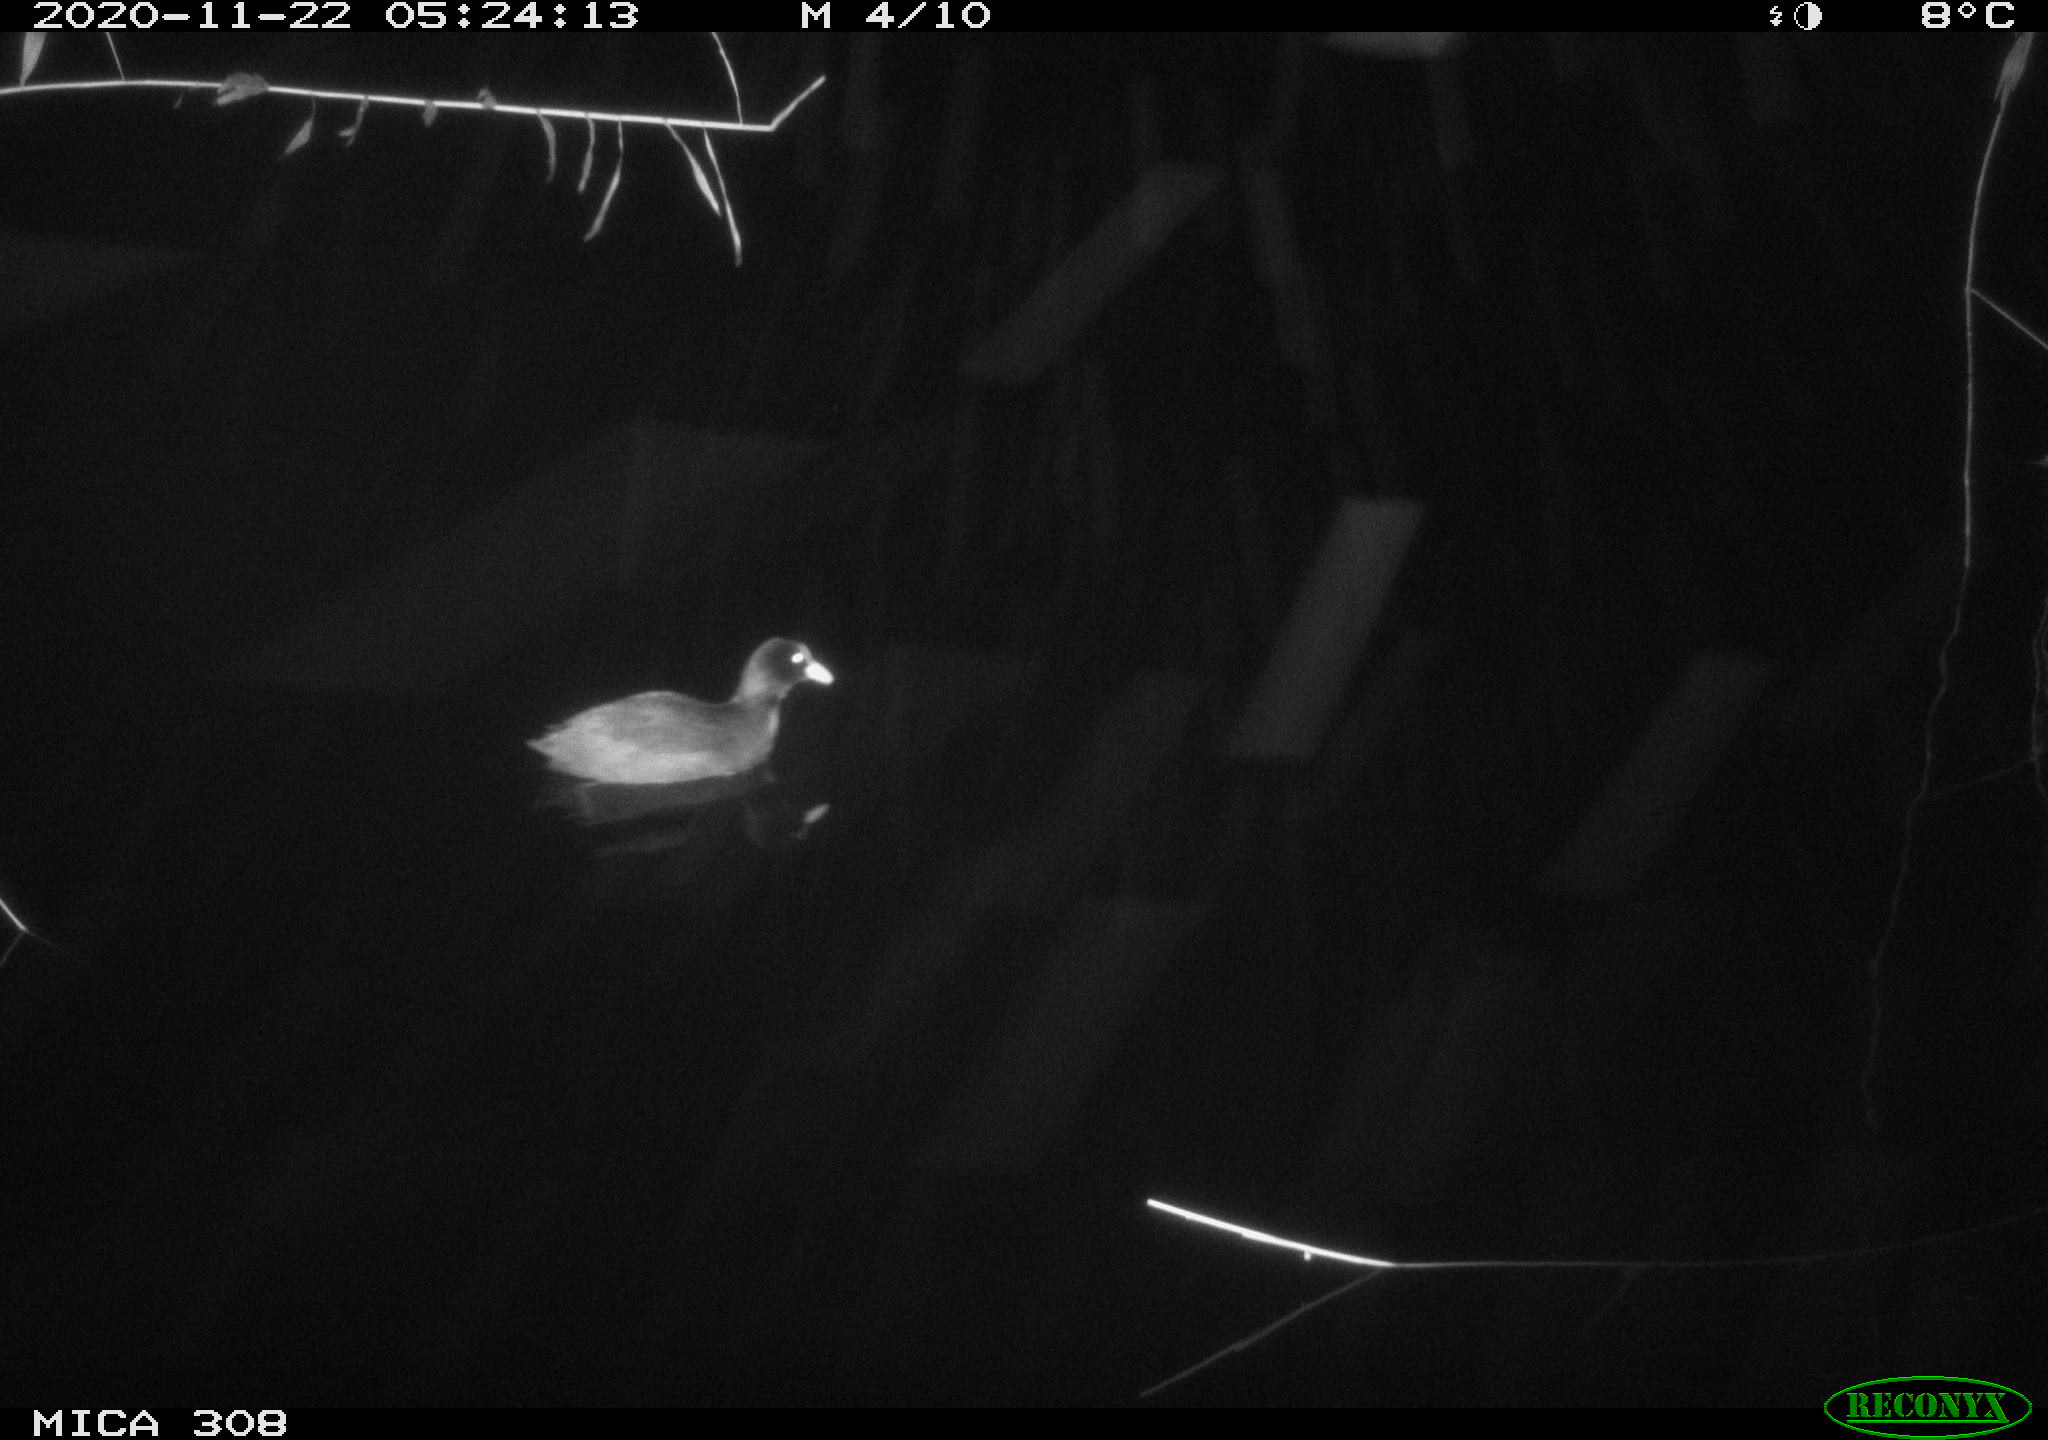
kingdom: Animalia
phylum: Chordata
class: Aves
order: Gruiformes
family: Rallidae
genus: Fulica
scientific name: Fulica atra
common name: Eurasian coot
